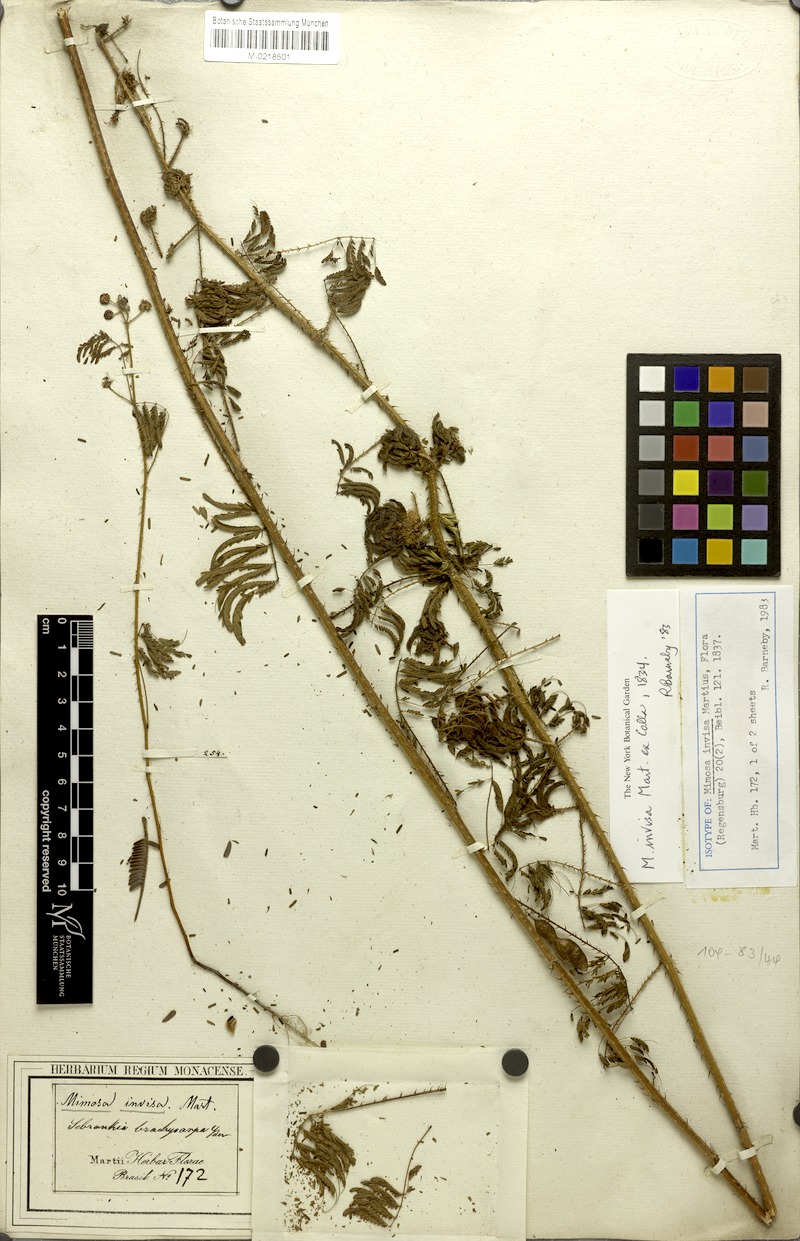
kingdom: Plantae
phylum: Tracheophyta
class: Magnoliopsida
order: Fabales
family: Fabaceae
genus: Mimosa
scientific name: Mimosa diplotricha
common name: Giant sensitive-plant
